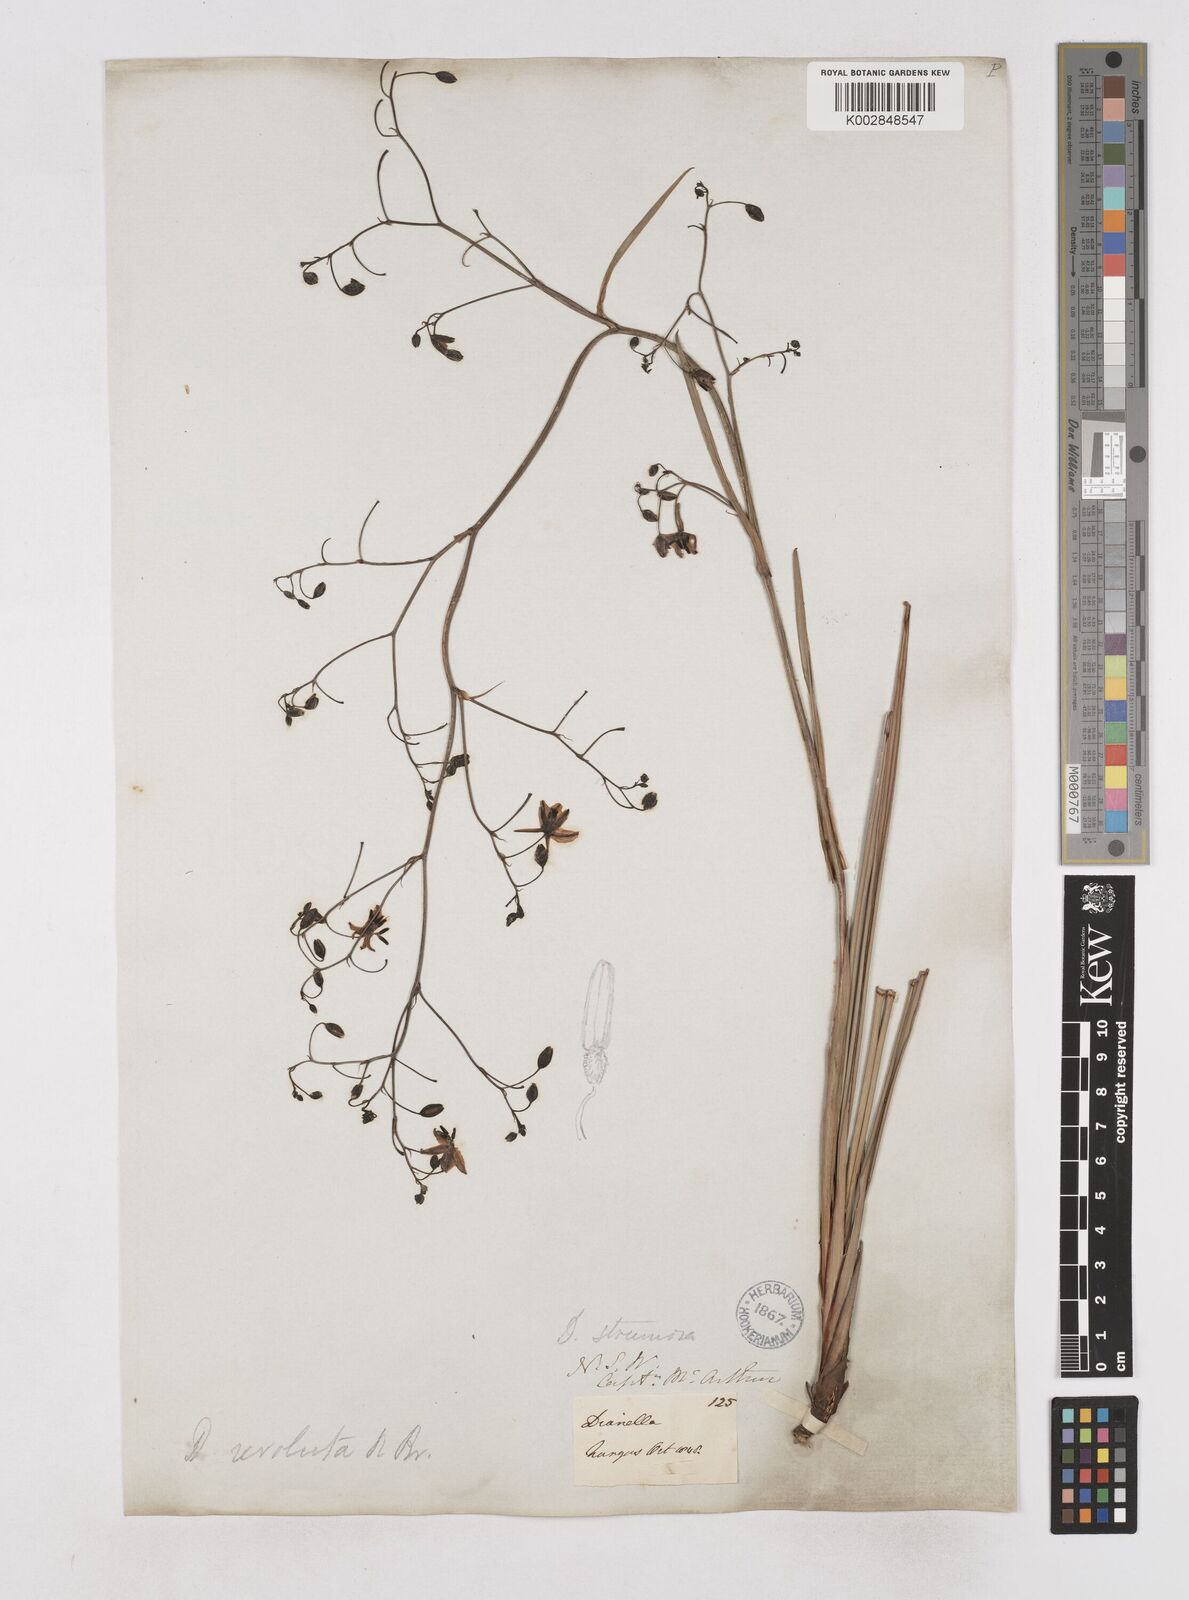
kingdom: Plantae
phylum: Tracheophyta
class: Liliopsida
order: Asparagales
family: Asphodelaceae
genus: Dianella
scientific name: Dianella revoluta
